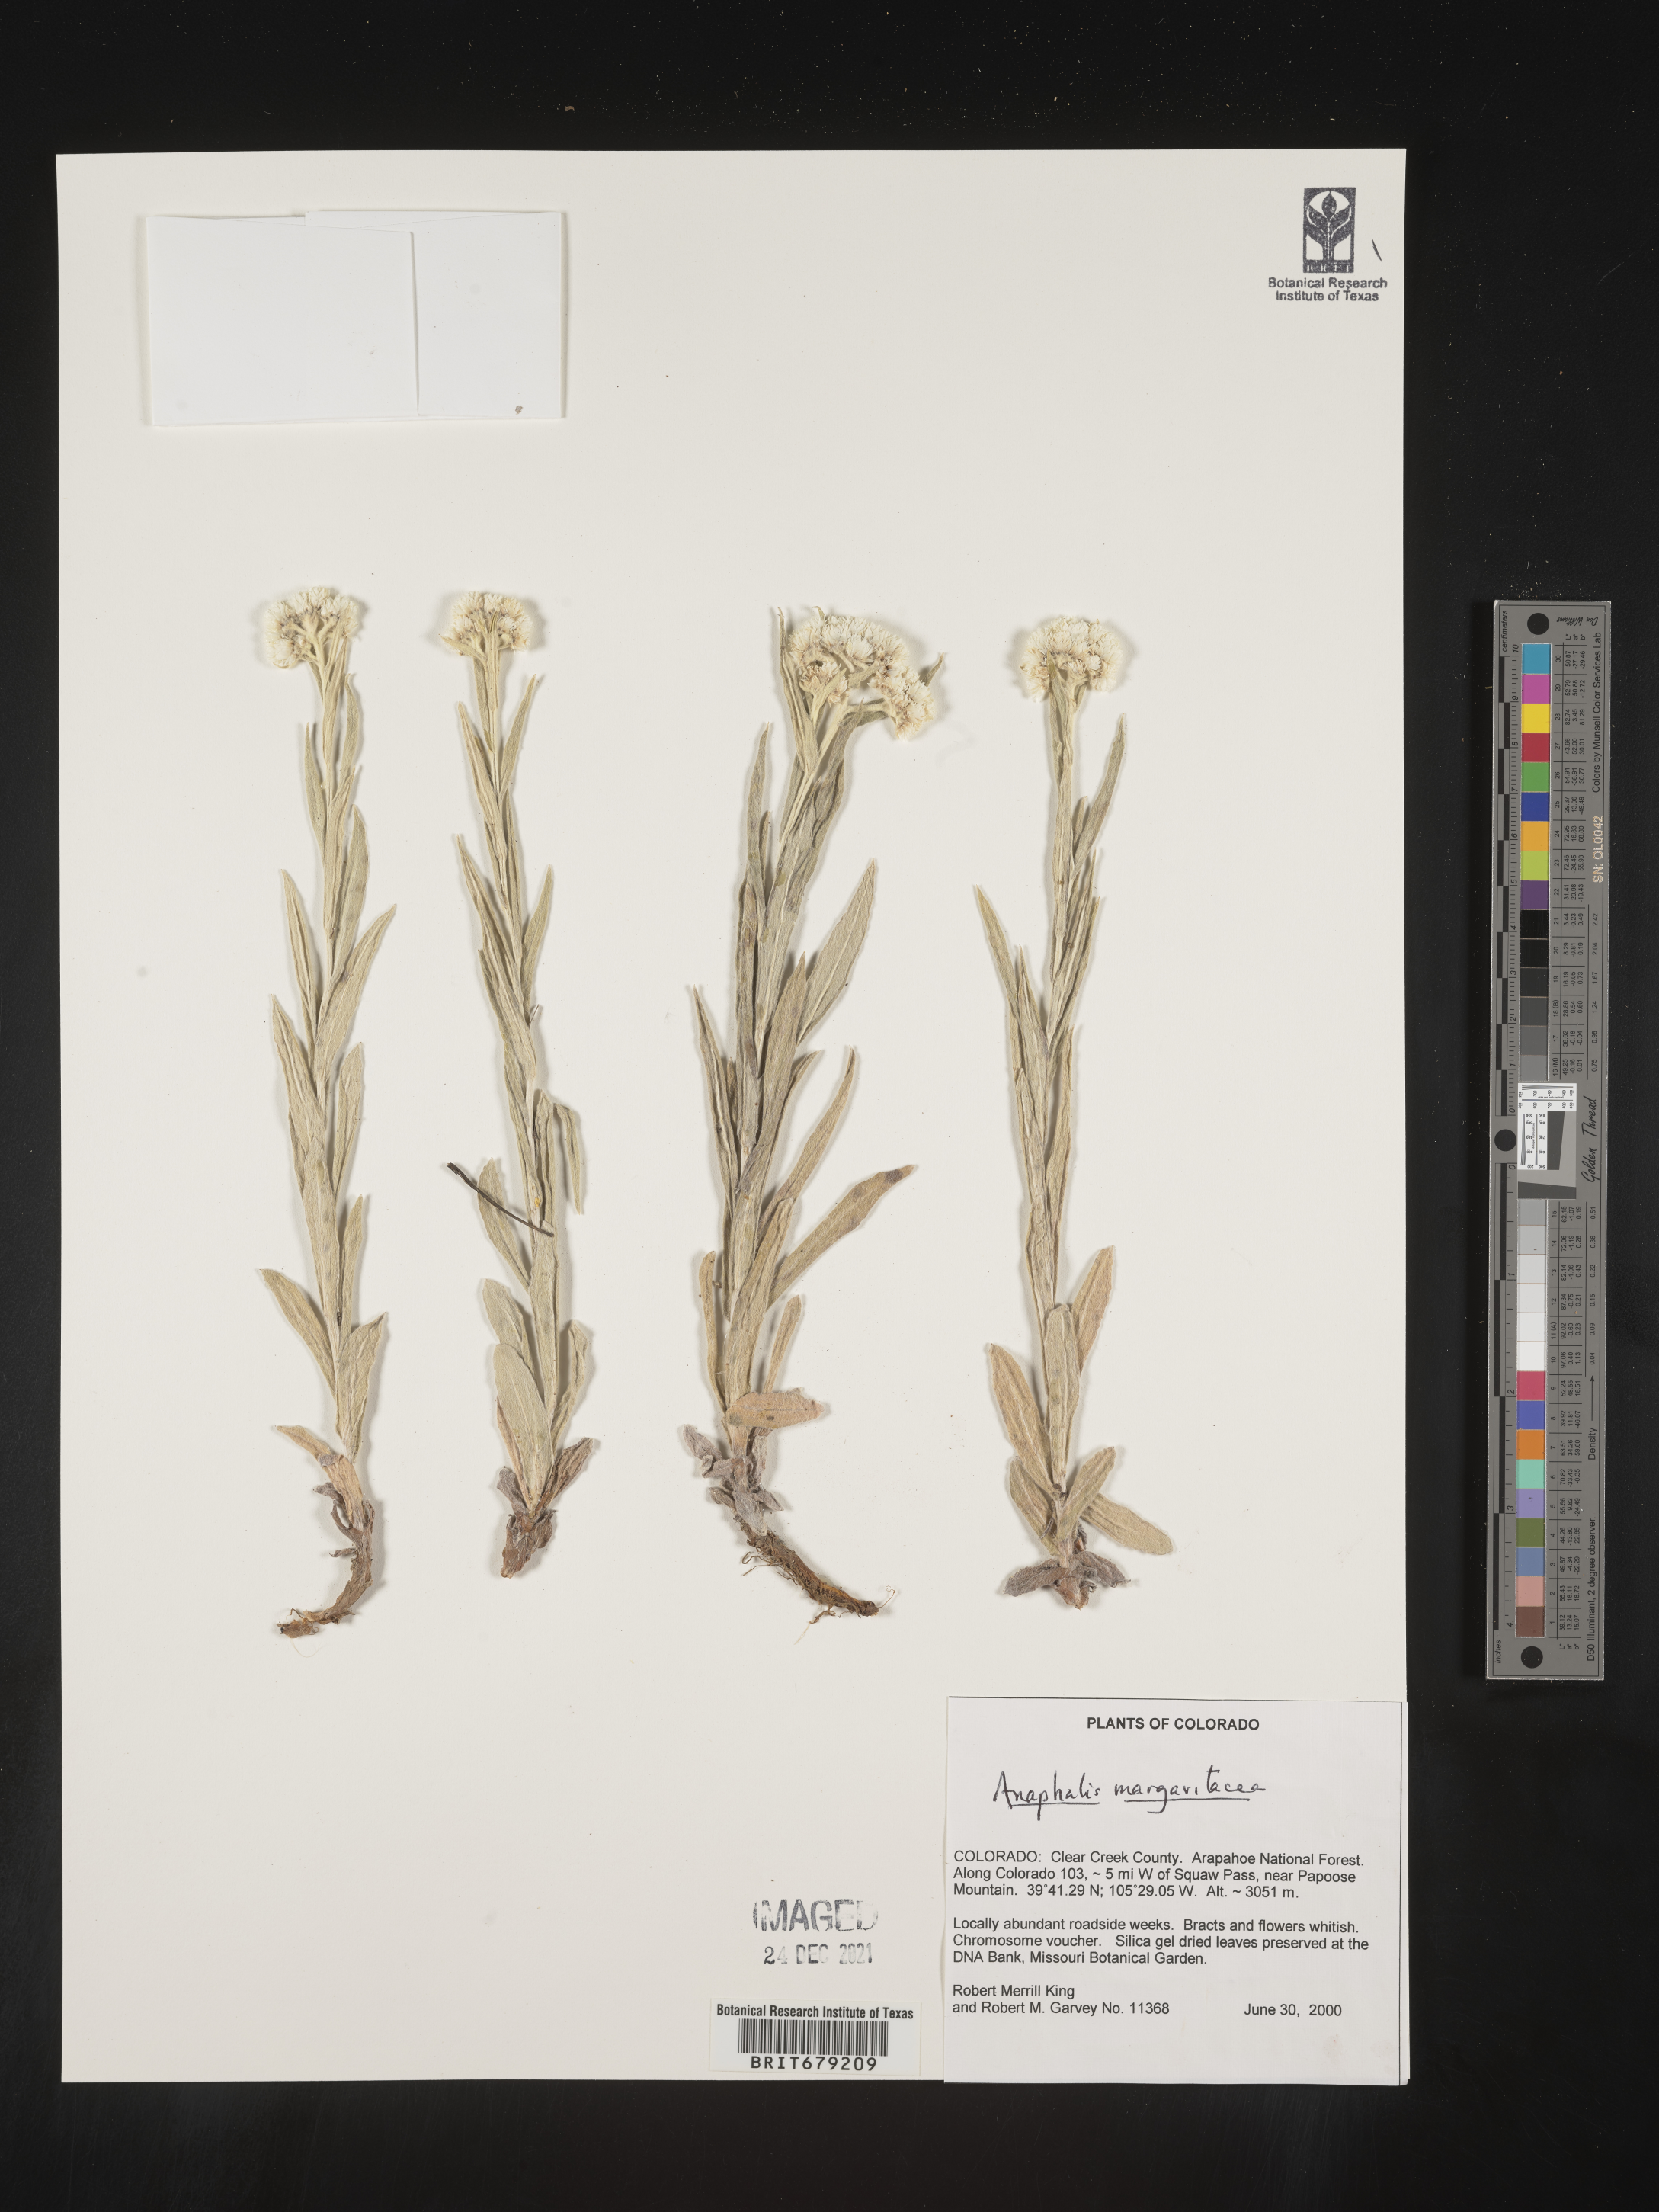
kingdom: Plantae
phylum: Tracheophyta
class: Magnoliopsida
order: Asterales
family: Asteraceae
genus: Anaphalis
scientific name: Anaphalis margaritacea
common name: Pearly everlasting
